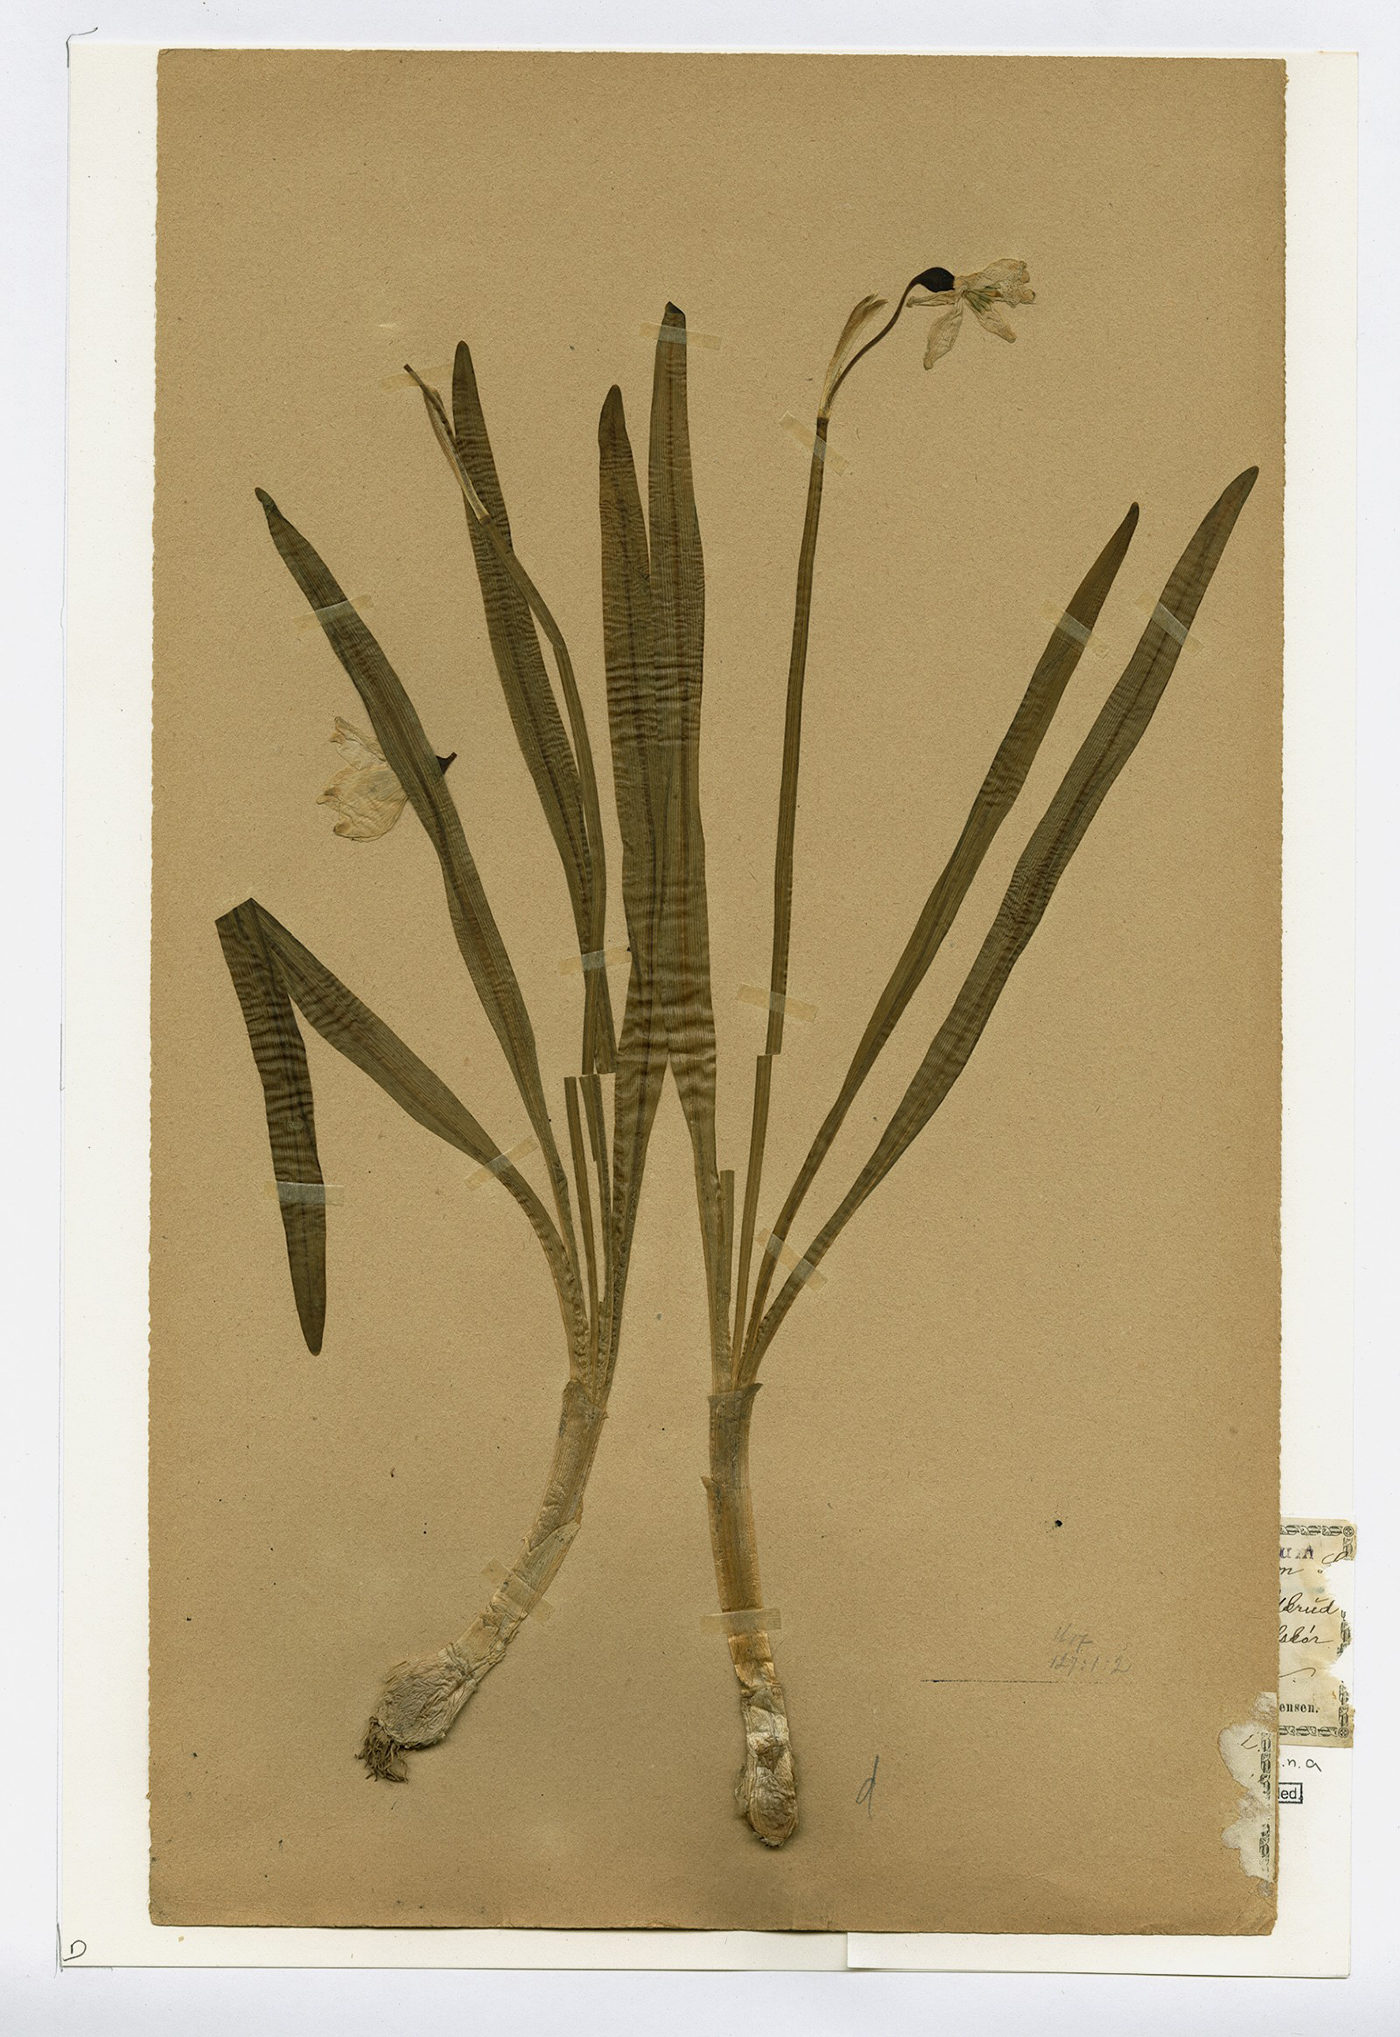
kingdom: Plantae
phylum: Tracheophyta
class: Liliopsida
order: Asparagales
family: Amaryllidaceae
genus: Leucojum
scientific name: Leucojum vernum
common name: Spring snowflake
